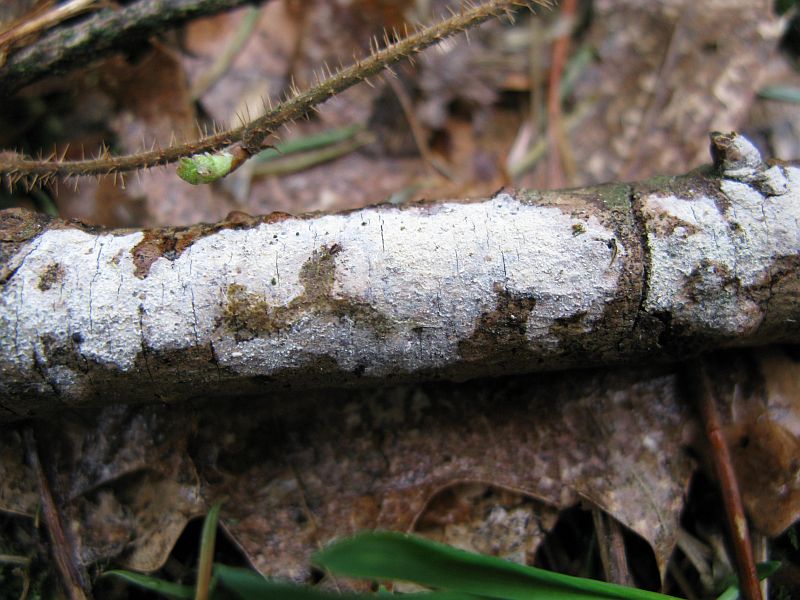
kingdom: Fungi
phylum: Basidiomycota
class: Agaricomycetes
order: Corticiales
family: Corticiaceae
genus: Lyomyces
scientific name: Lyomyces crustosus
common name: vortet hyldehinde
